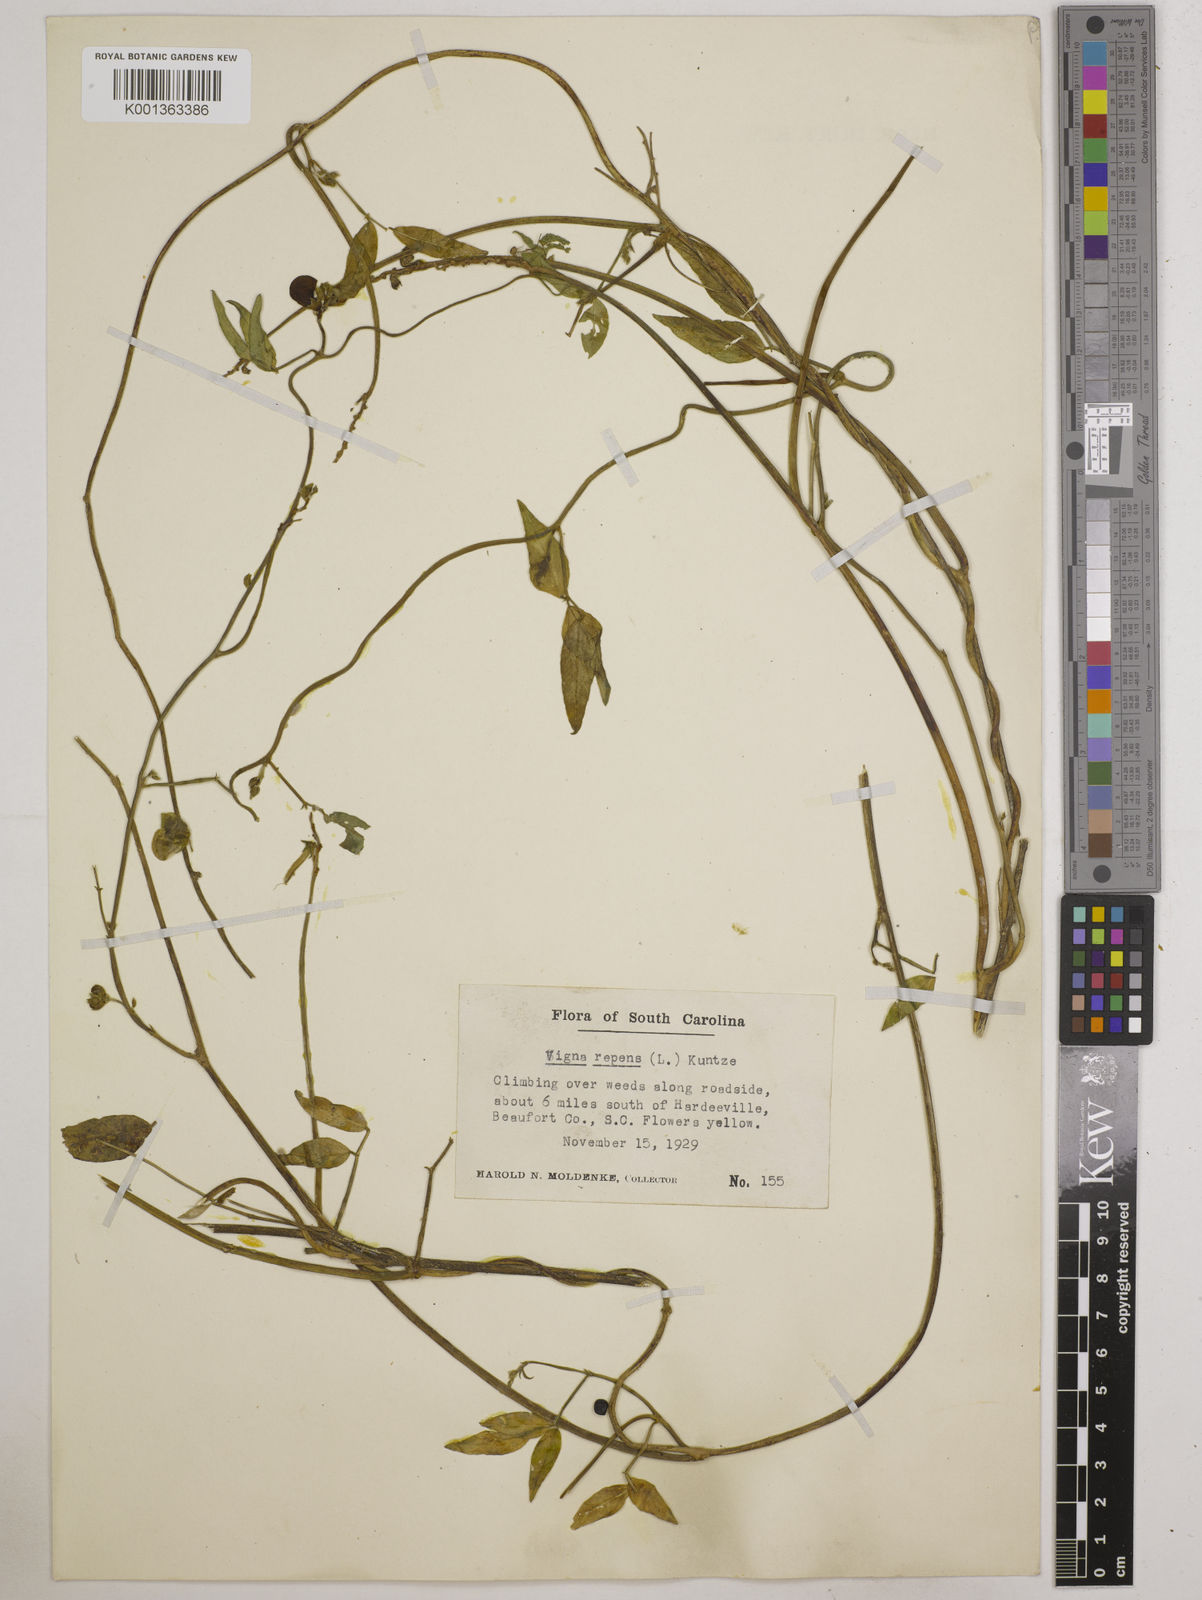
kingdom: Plantae
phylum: Tracheophyta
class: Magnoliopsida
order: Fabales
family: Fabaceae
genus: Vigna
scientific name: Vigna luteola
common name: Hairypod cowpea
